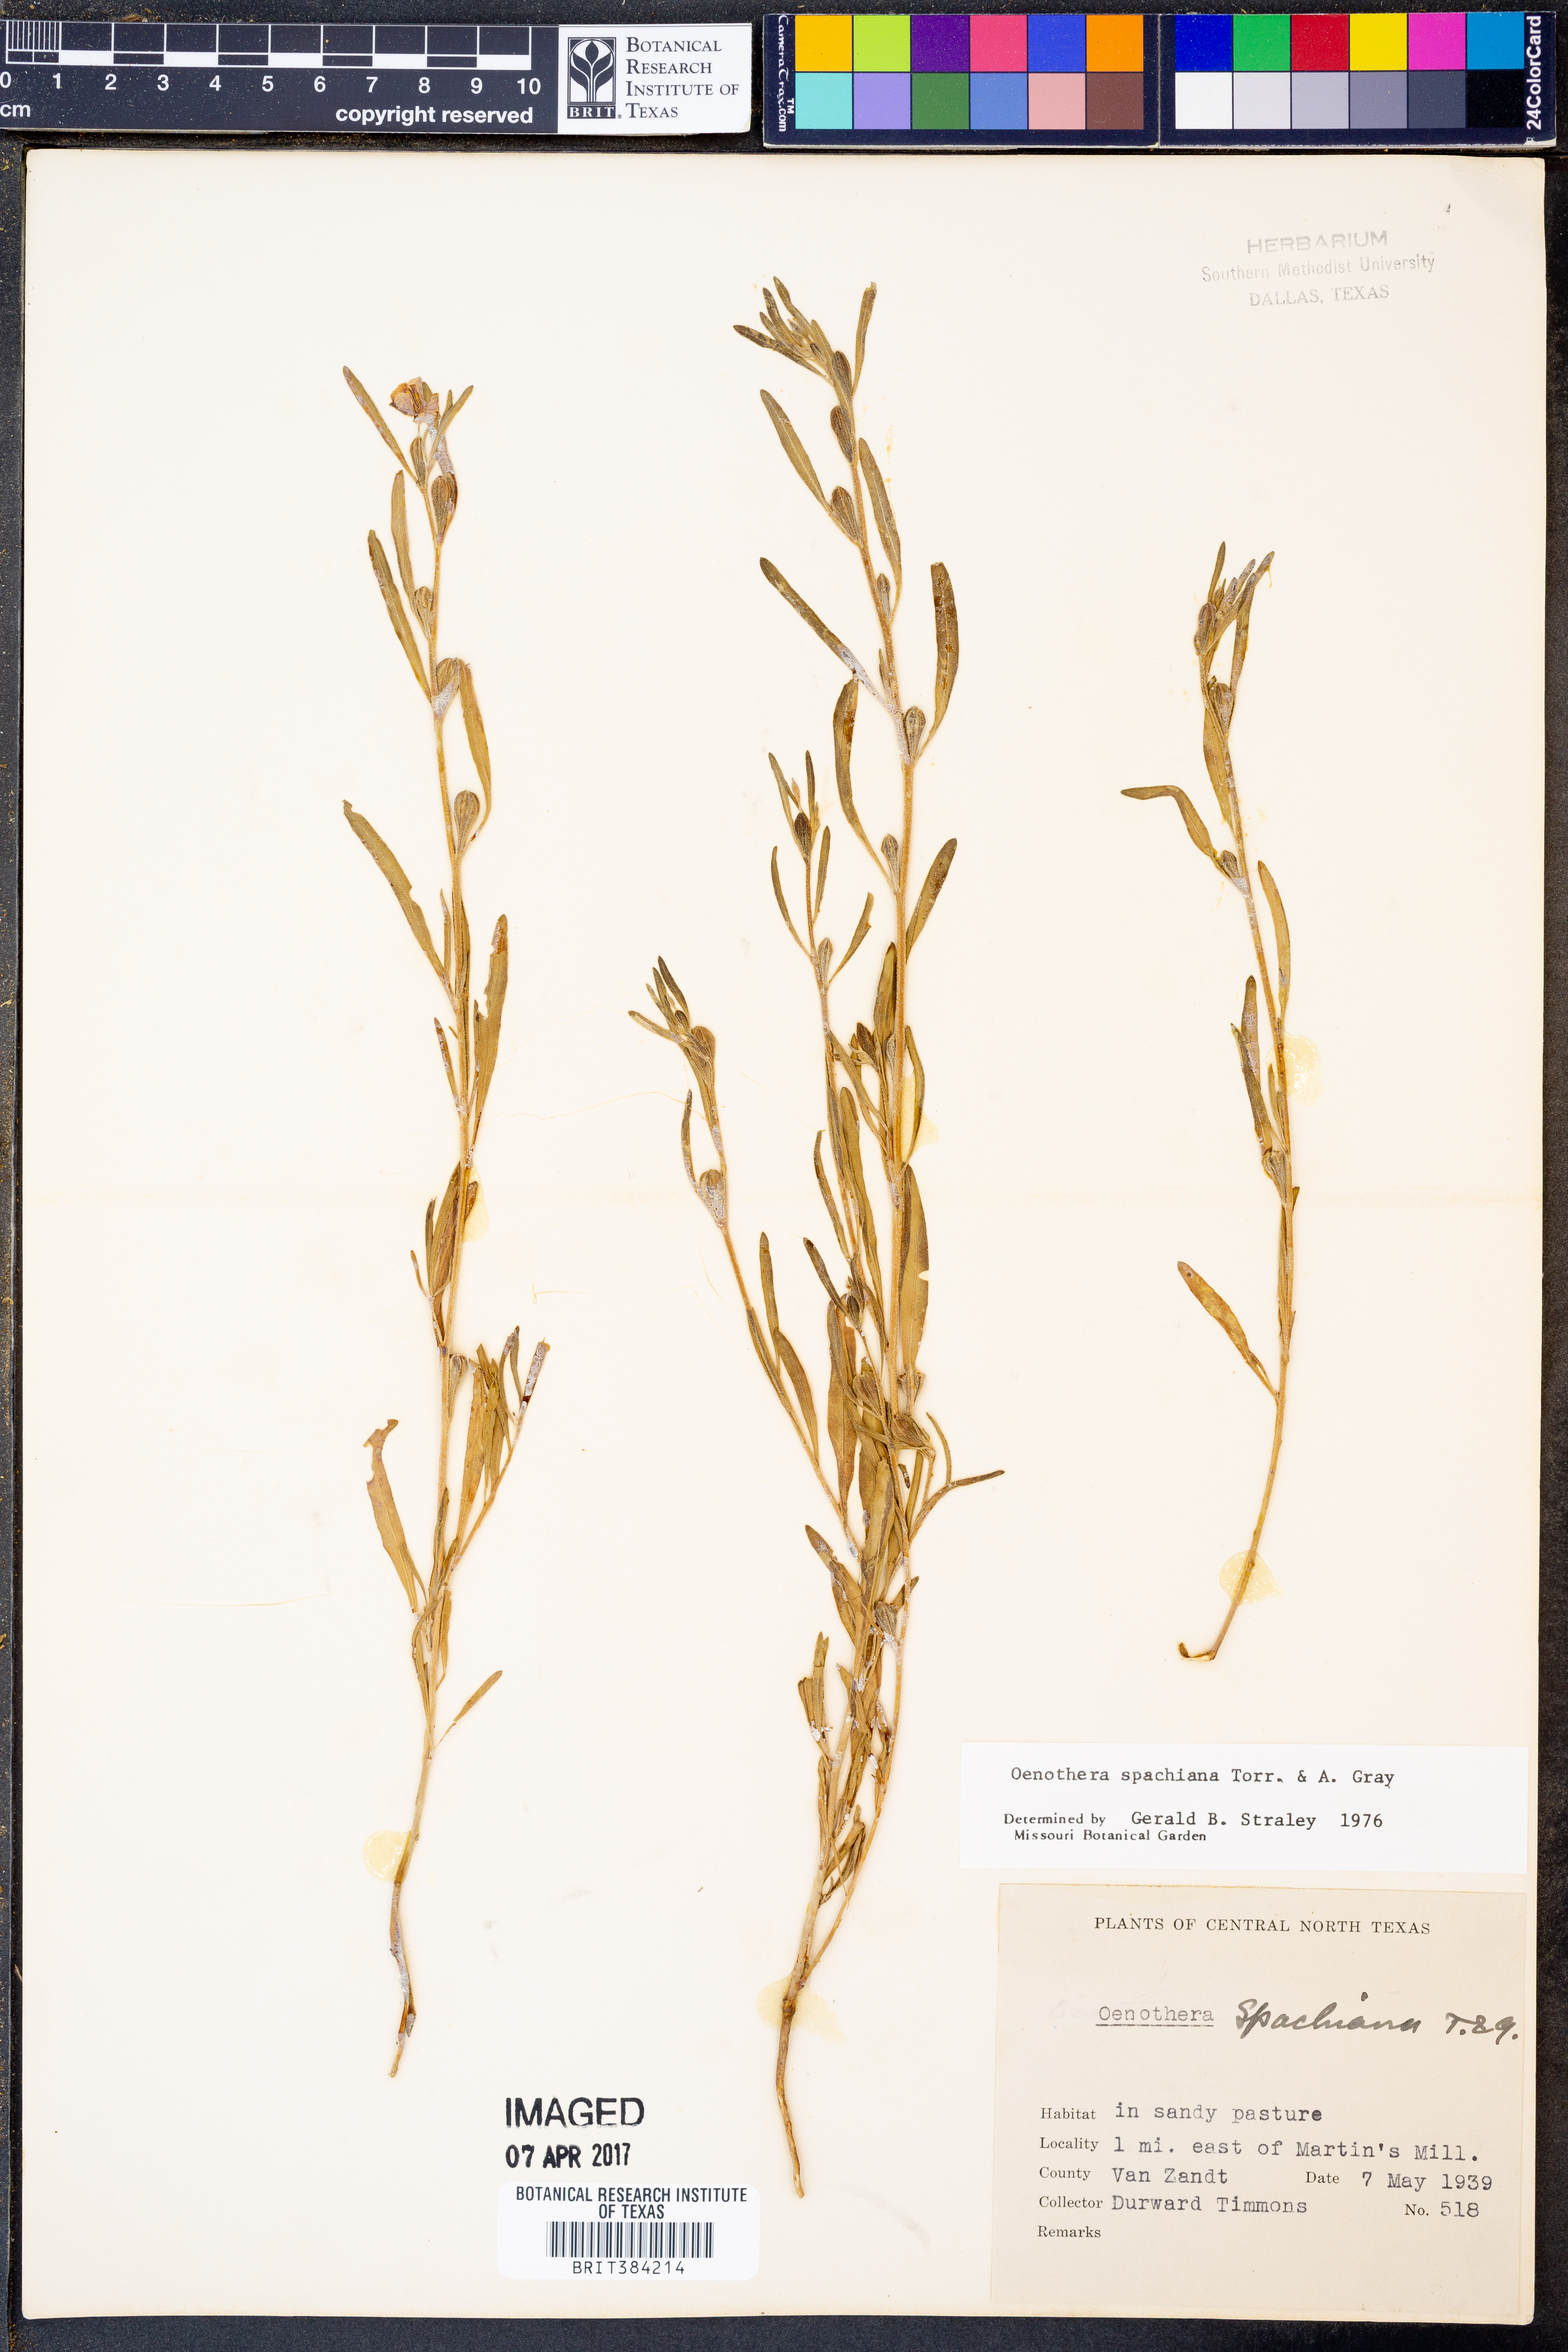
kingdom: Plantae
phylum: Tracheophyta
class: Magnoliopsida
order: Myrtales
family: Onagraceae
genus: Oenothera
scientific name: Oenothera spachiana
